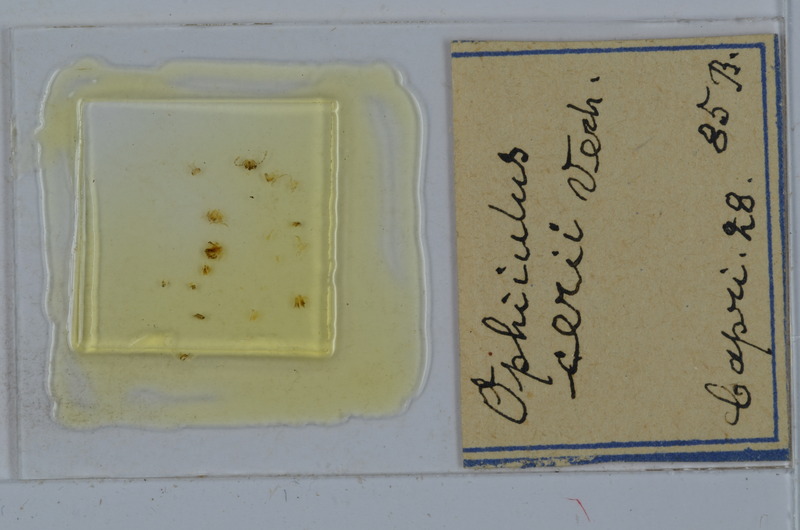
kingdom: Animalia
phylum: Arthropoda
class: Diplopoda
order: Julida
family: Julidae
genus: Ophyiulus
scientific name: Ophyiulus cerii
